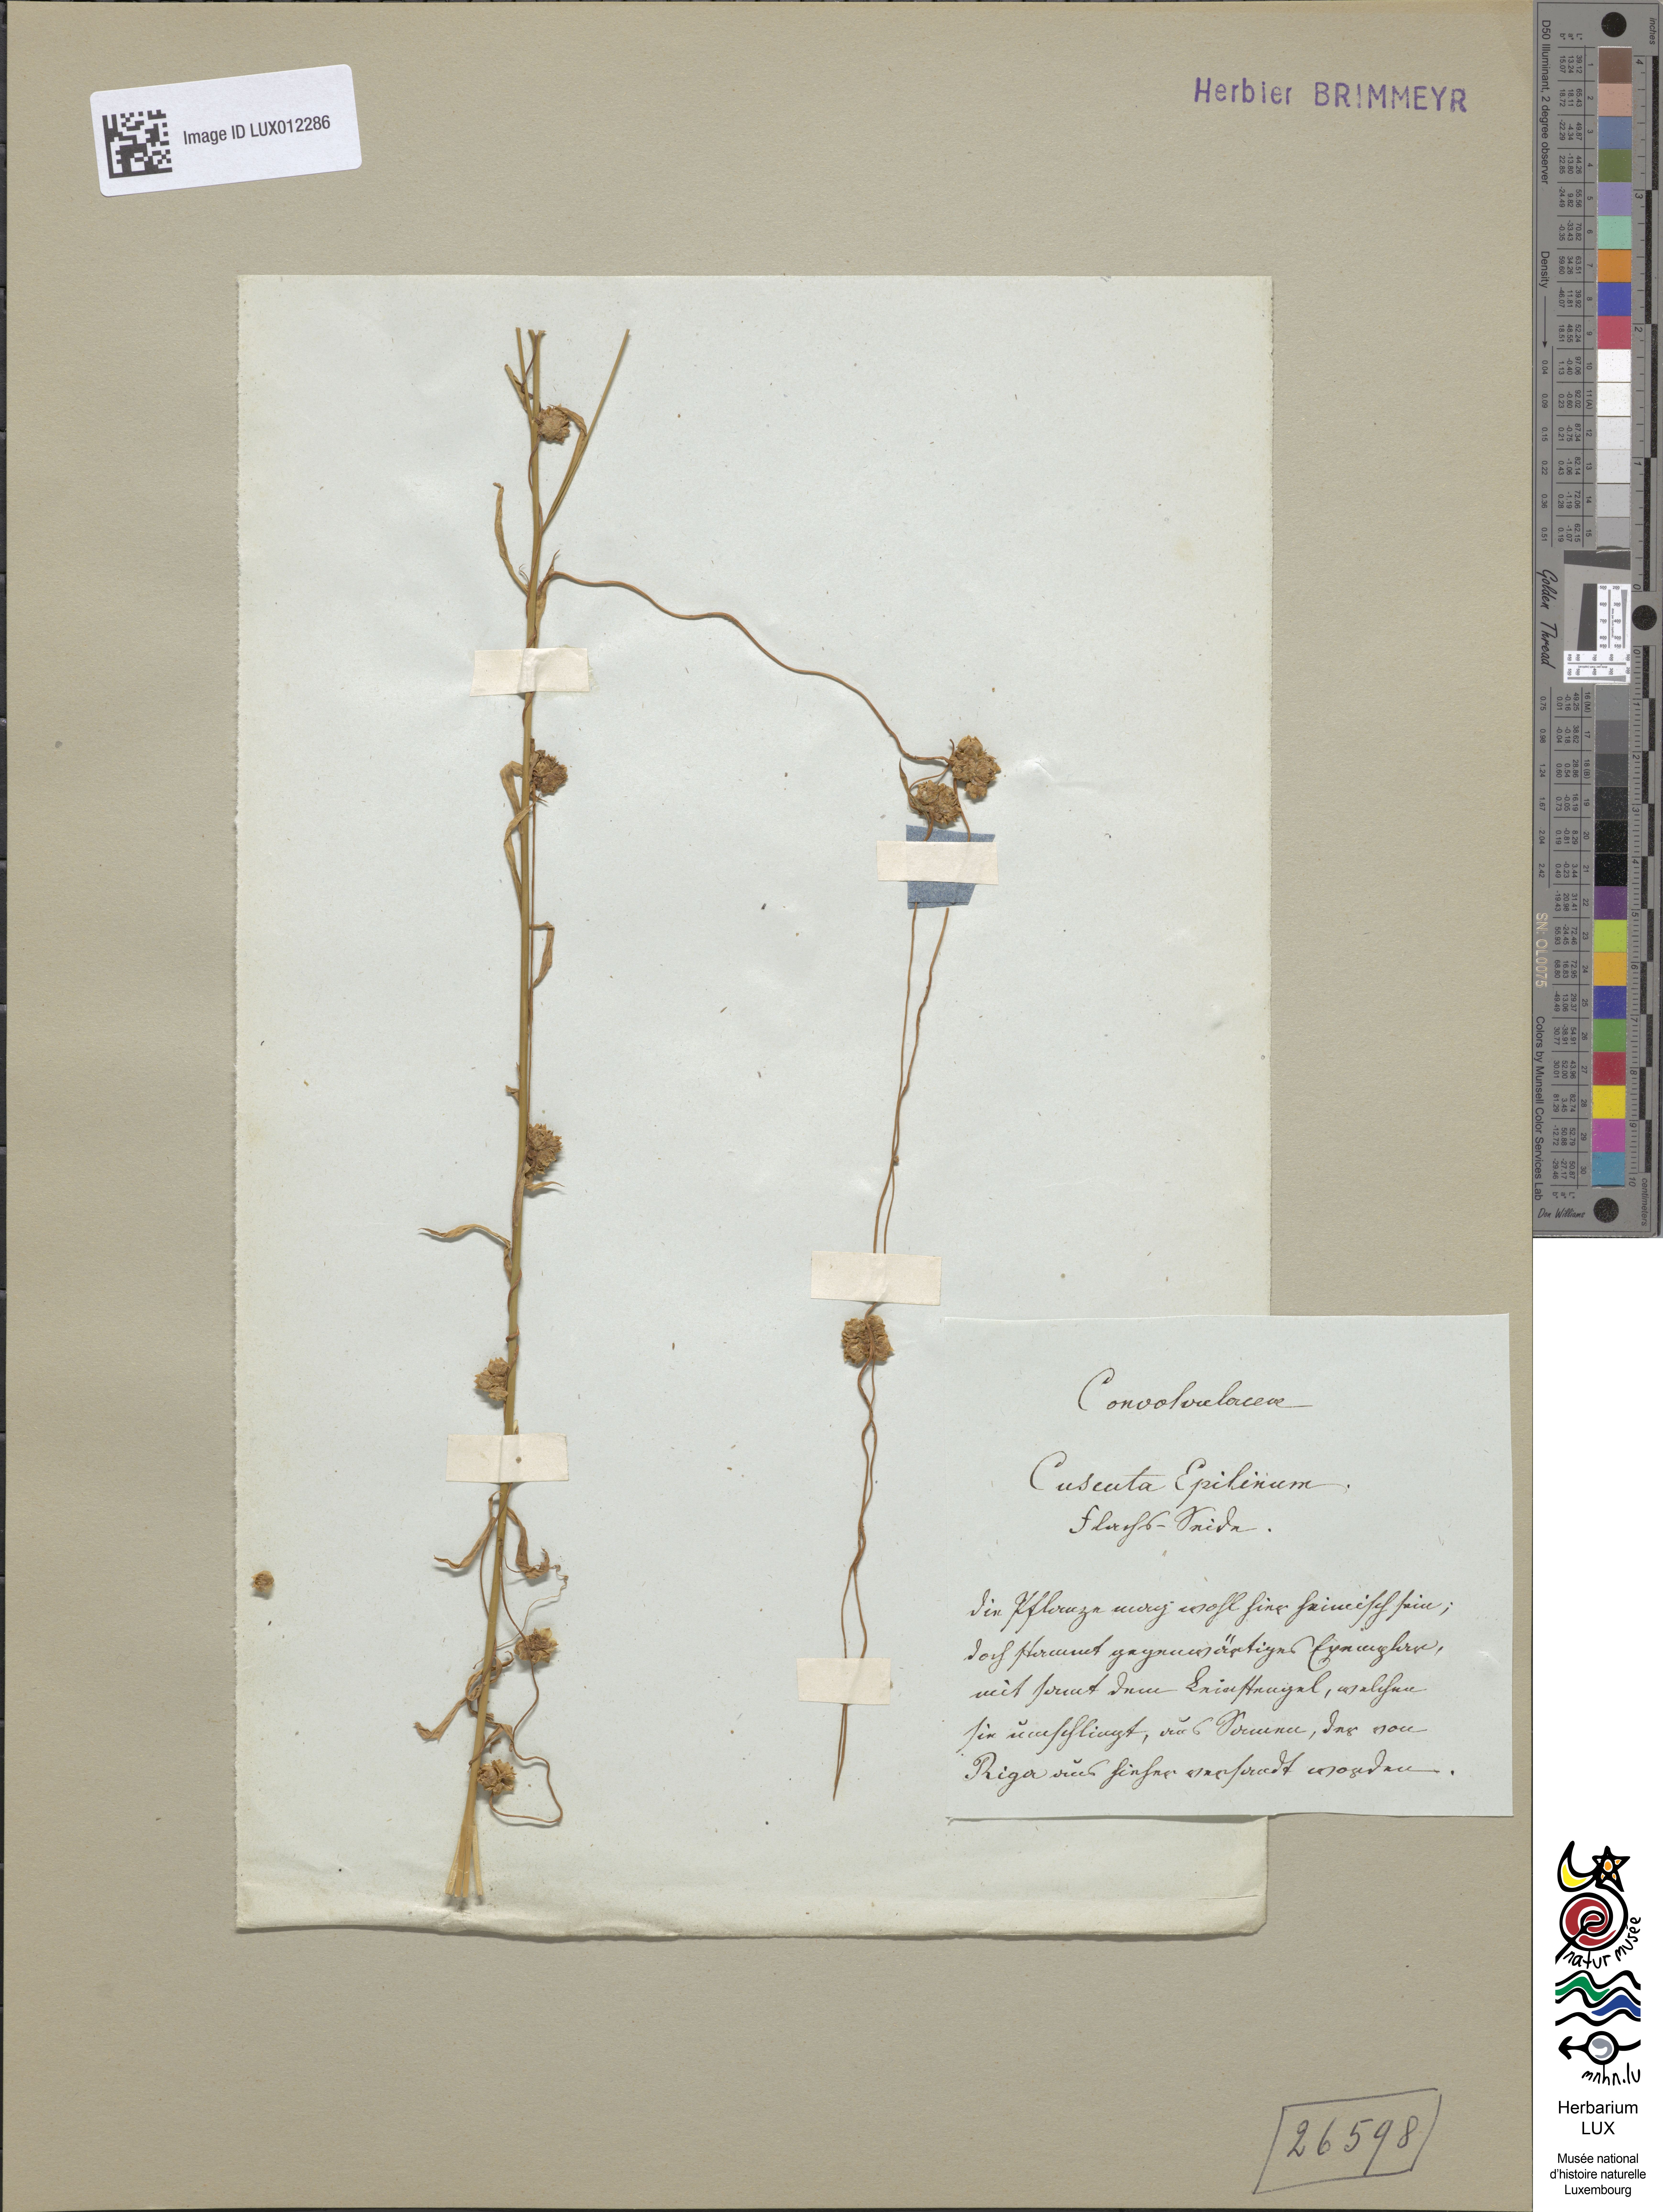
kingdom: Plantae
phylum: Tracheophyta
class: Magnoliopsida
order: Solanales
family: Convolvulaceae
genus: Cuscuta
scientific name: Cuscuta epilinum
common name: Flax dodder
